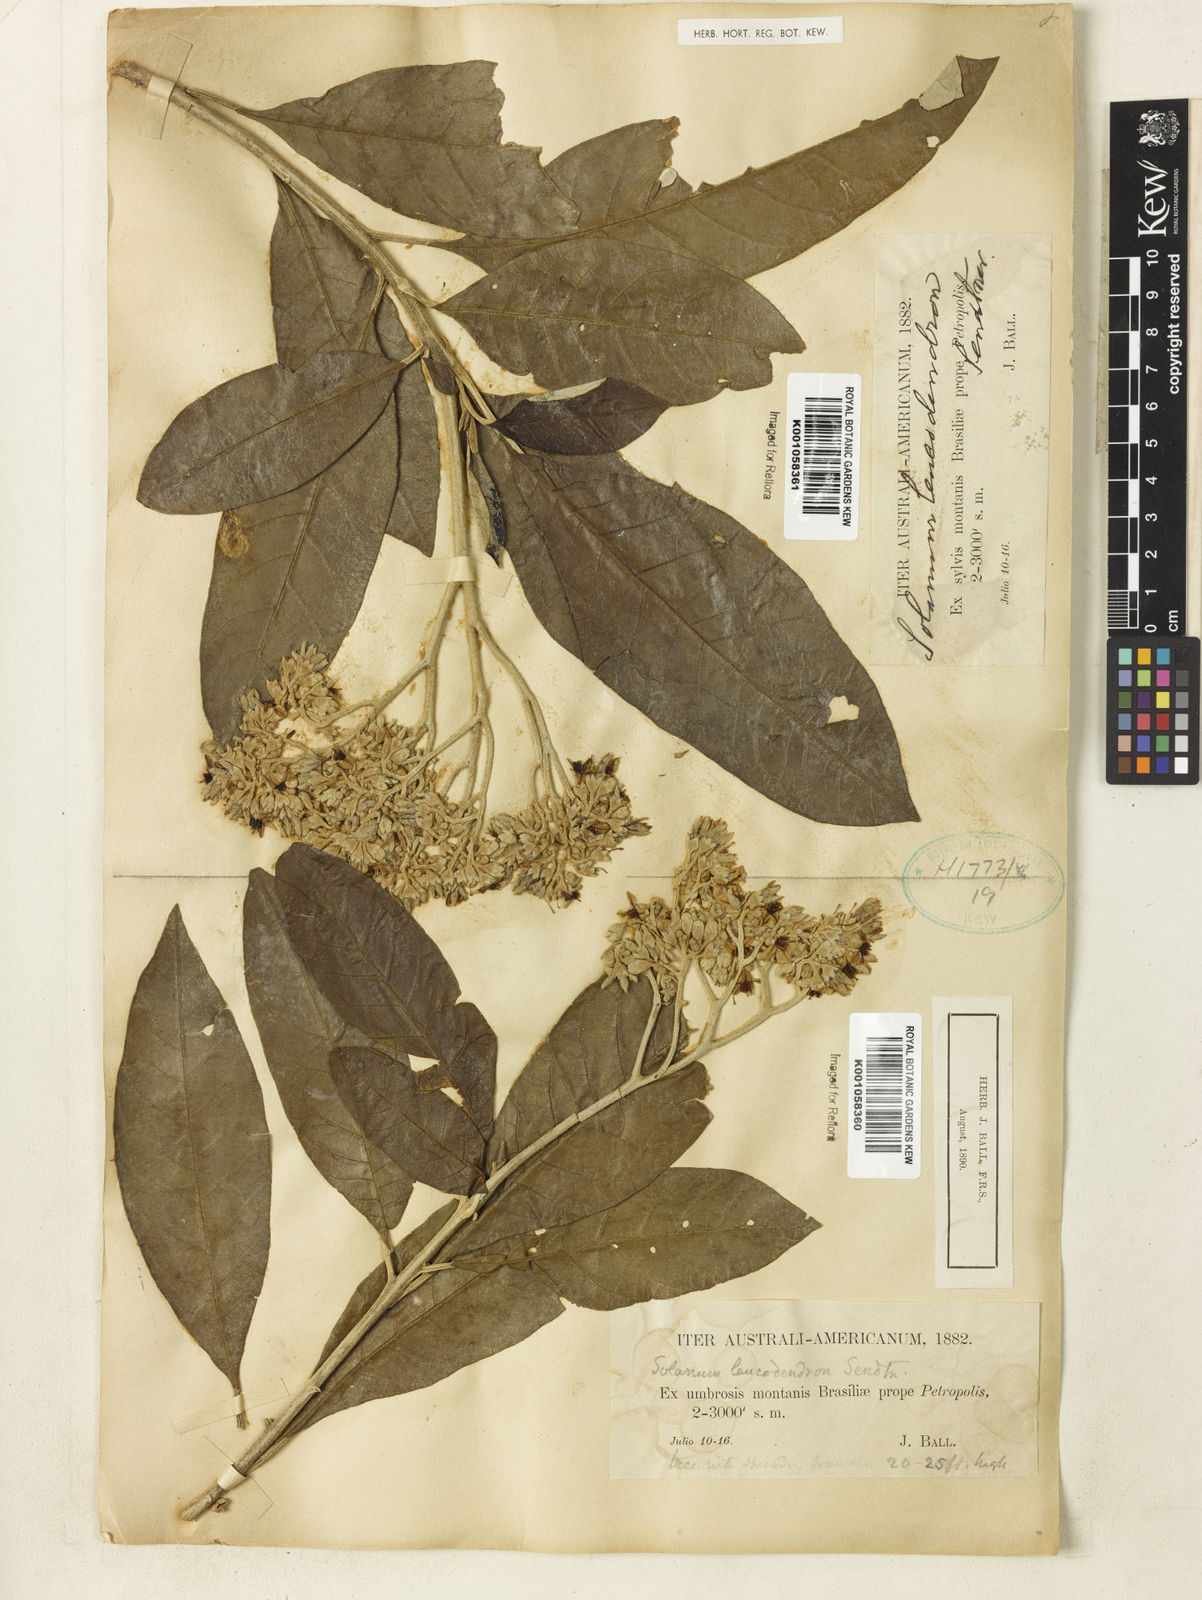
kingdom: Plantae
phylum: Tracheophyta
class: Magnoliopsida
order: Solanales
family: Solanaceae
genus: Solanum
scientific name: Solanum leucodendron
